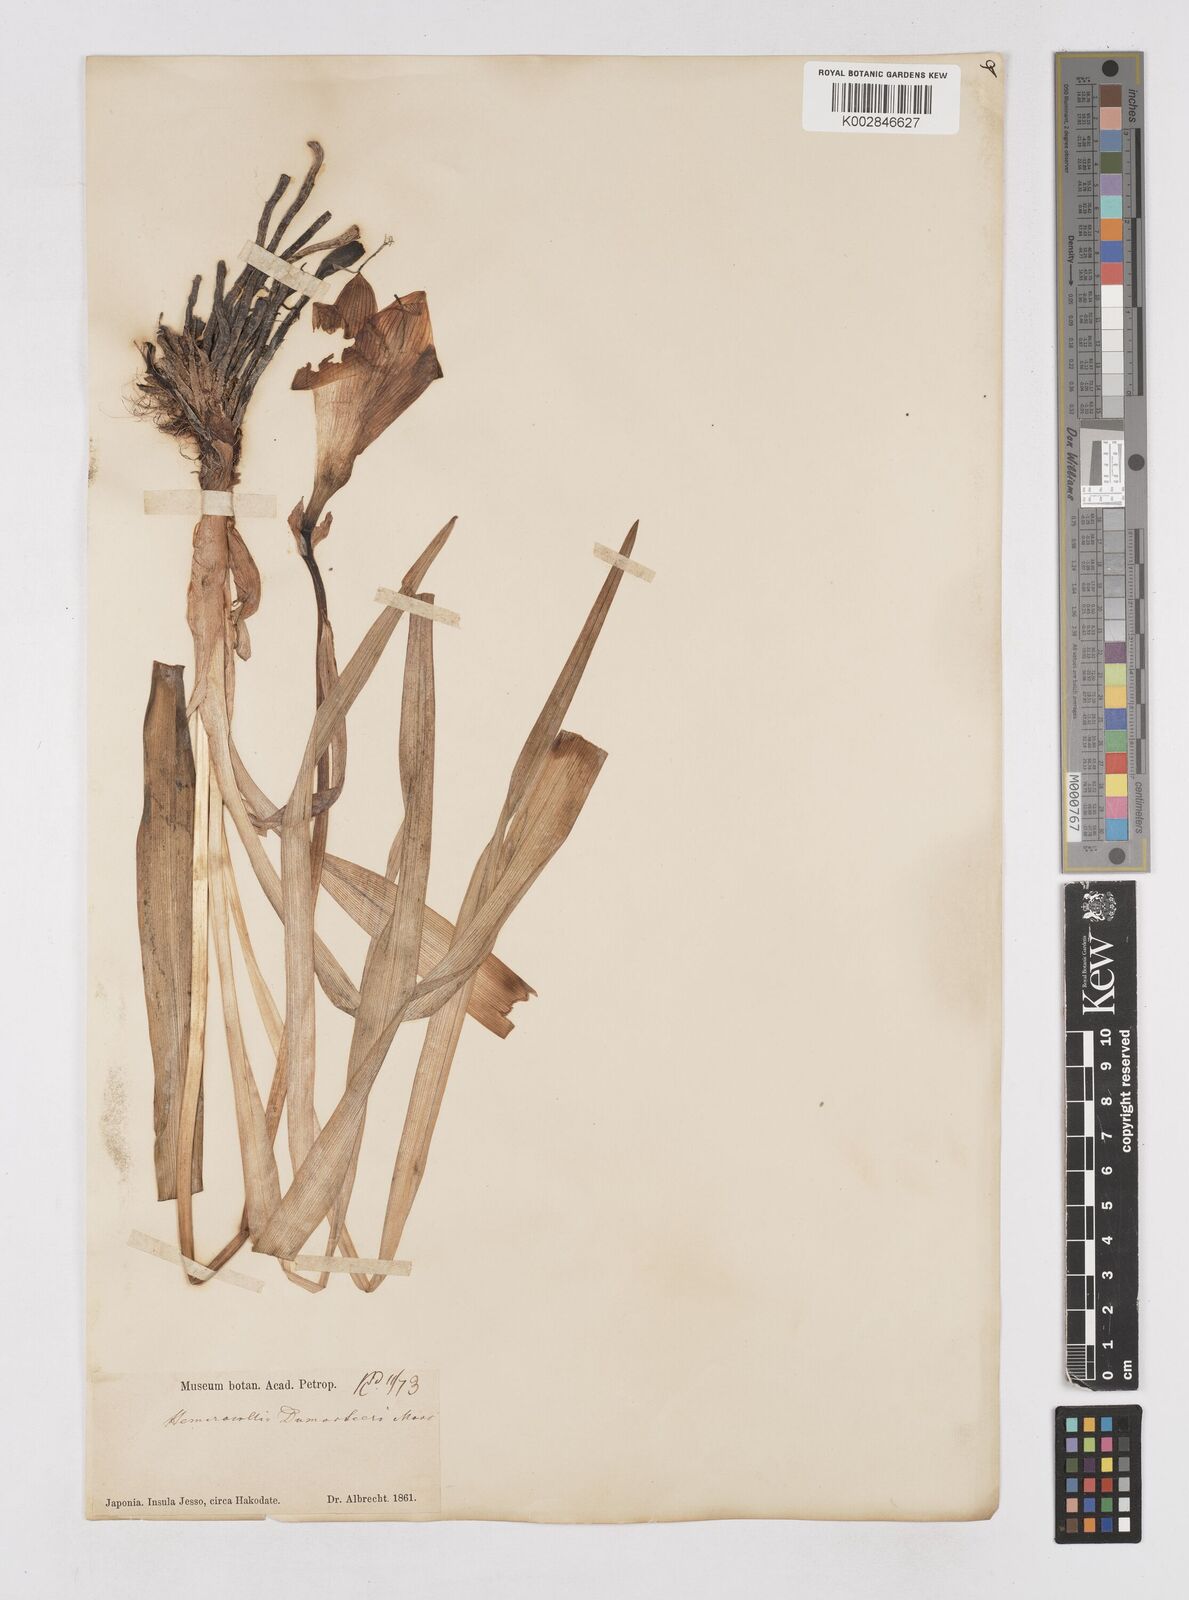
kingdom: Plantae
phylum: Tracheophyta
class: Liliopsida
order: Asparagales
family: Asphodelaceae
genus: Hemerocallis
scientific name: Hemerocallis middendorffii
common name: Amur day-lily
